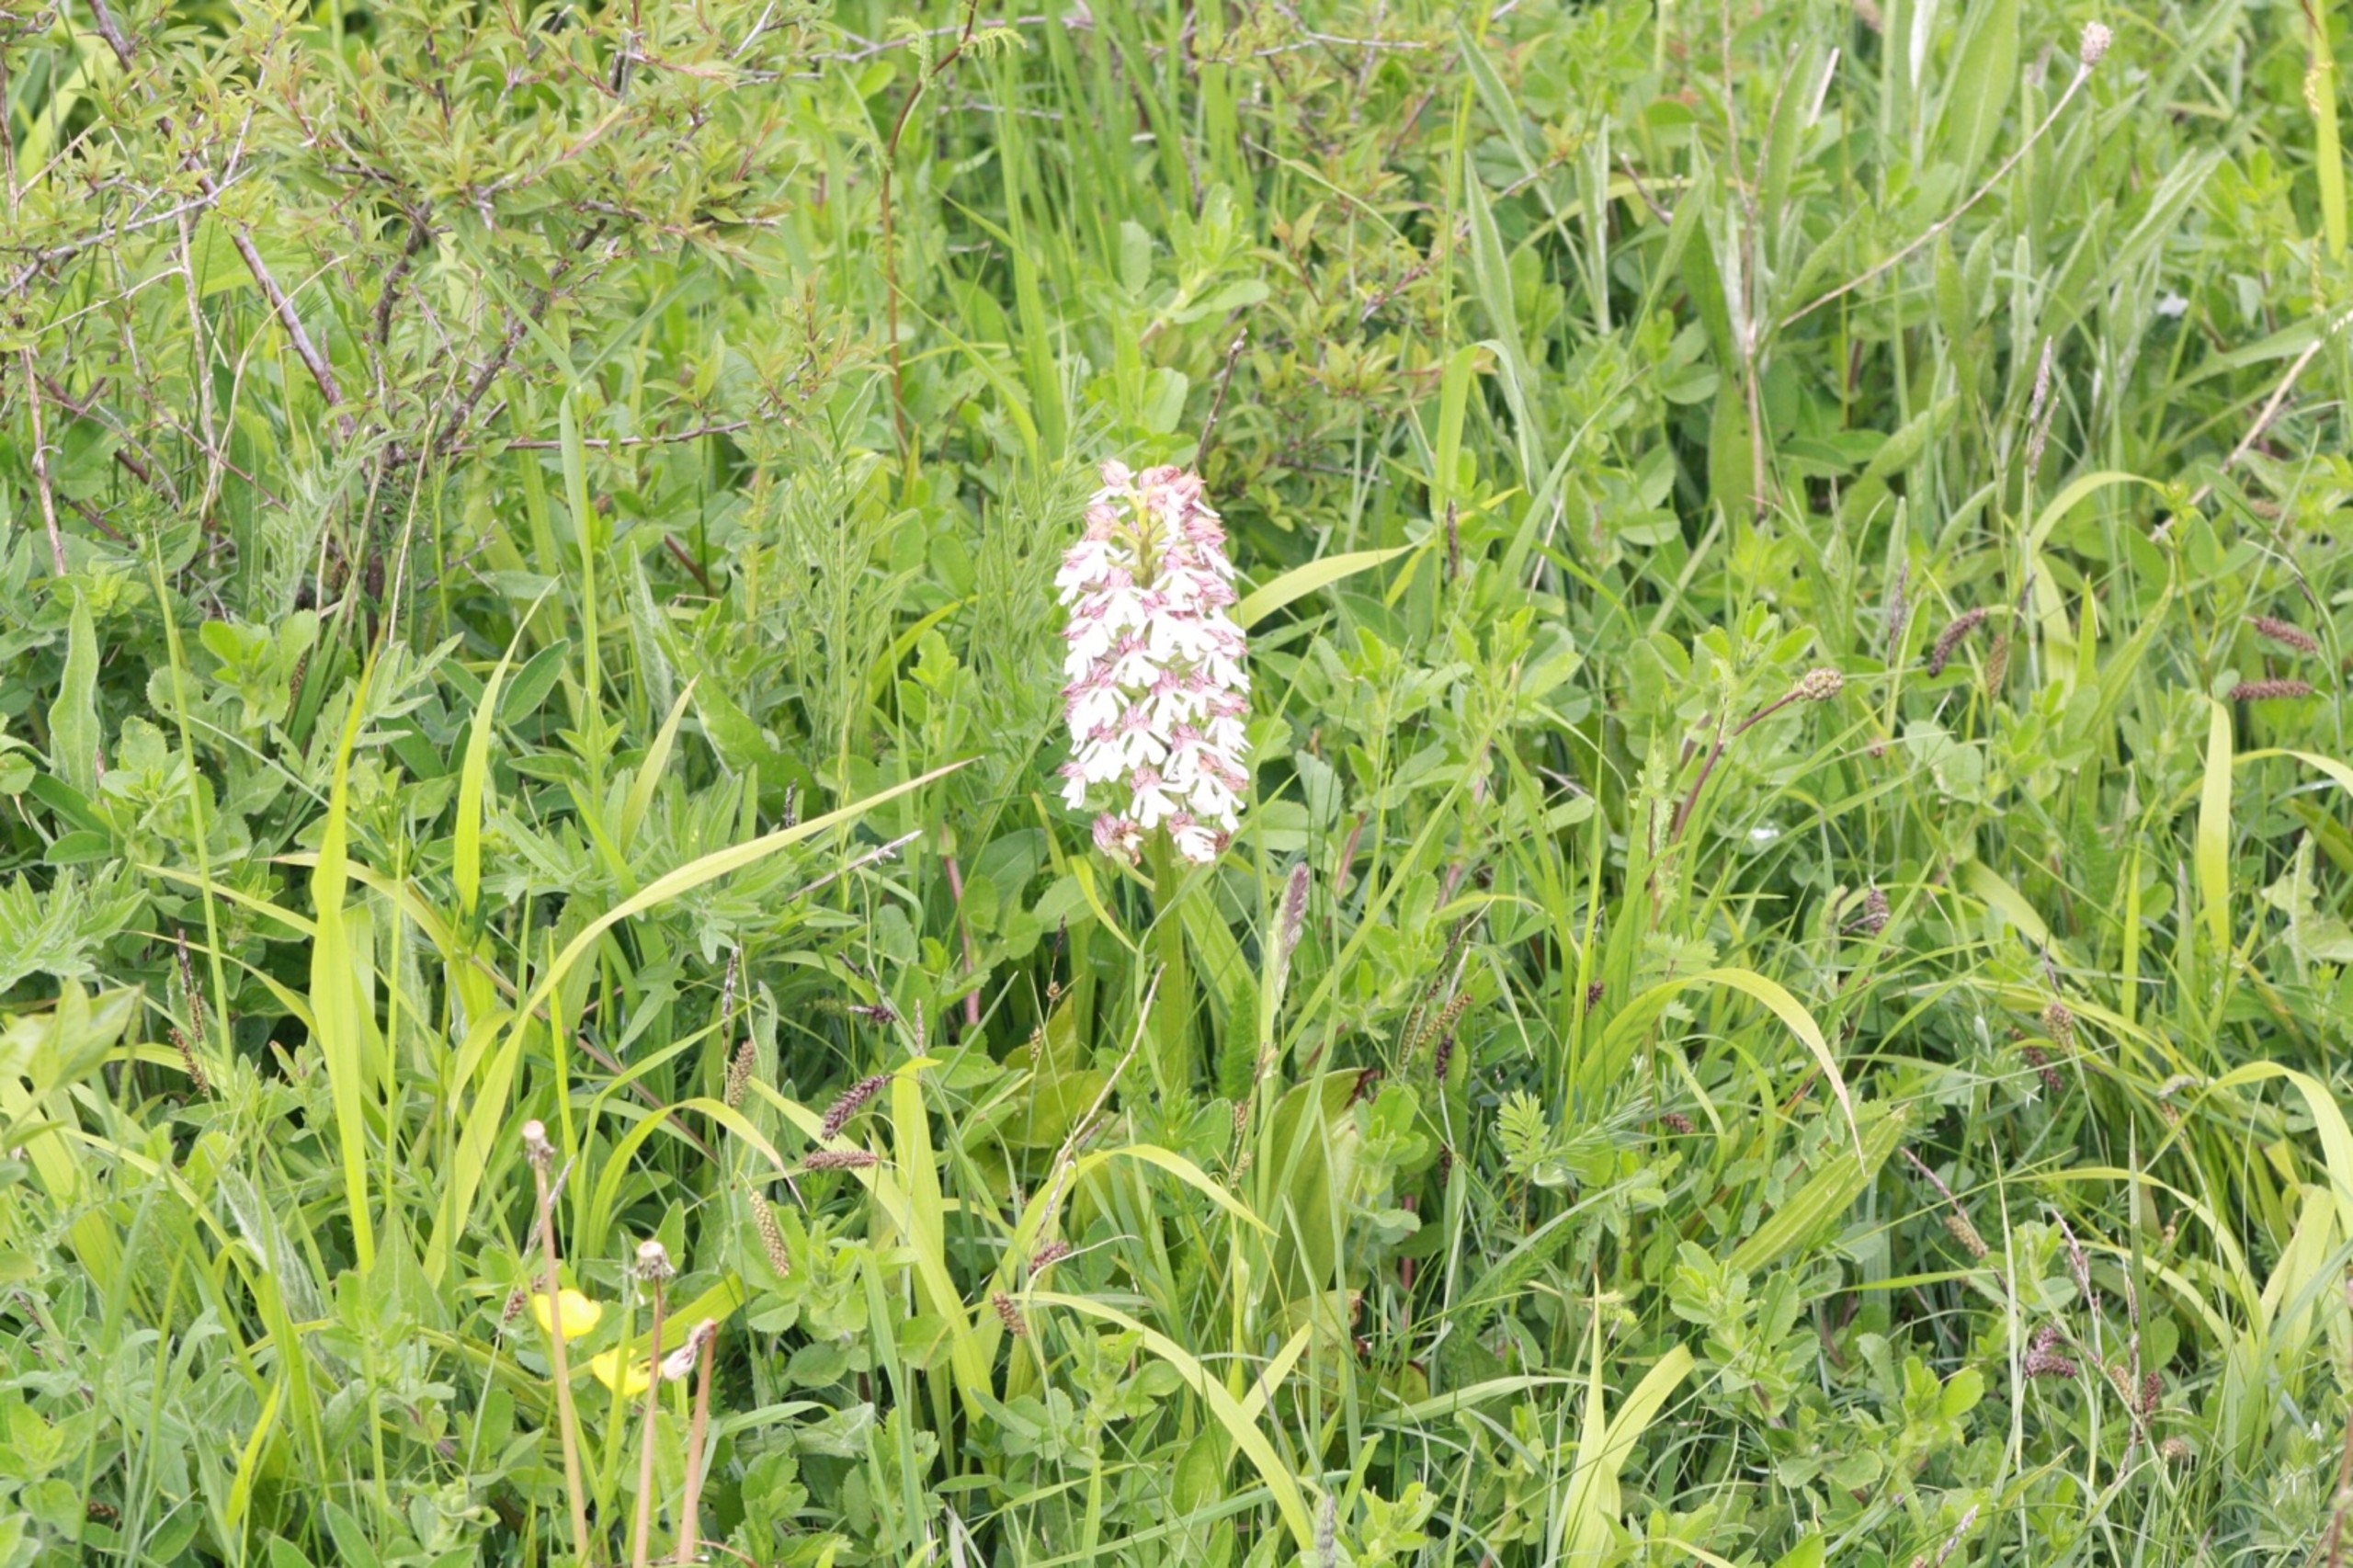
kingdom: Plantae
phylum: Tracheophyta
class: Liliopsida
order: Asparagales
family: Orchidaceae
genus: Orchis
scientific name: Orchis purpurea
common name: Stor gøgeurt
